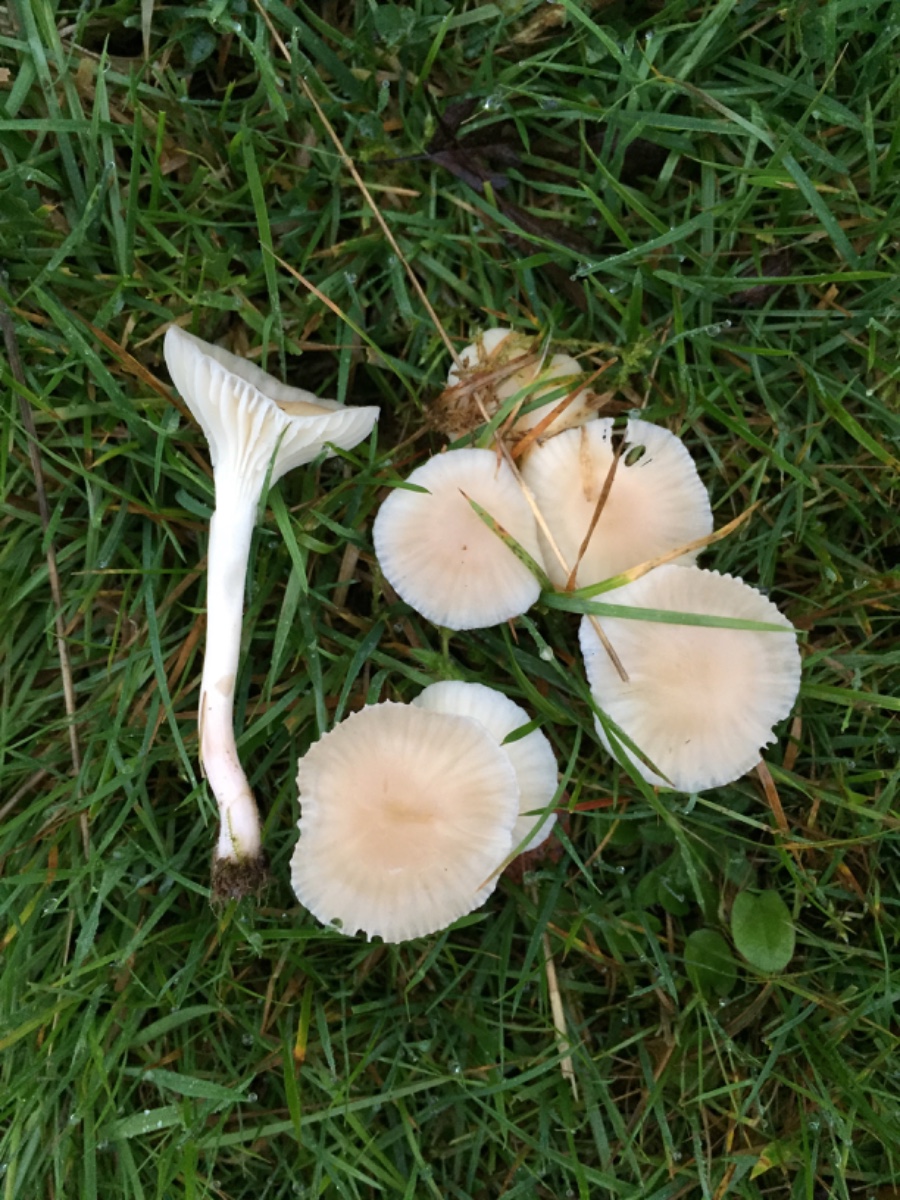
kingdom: Fungi
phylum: Basidiomycota
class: Agaricomycetes
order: Agaricales
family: Hygrophoraceae
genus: Cuphophyllus
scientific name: Cuphophyllus virgineus
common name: snehvid vokshat
